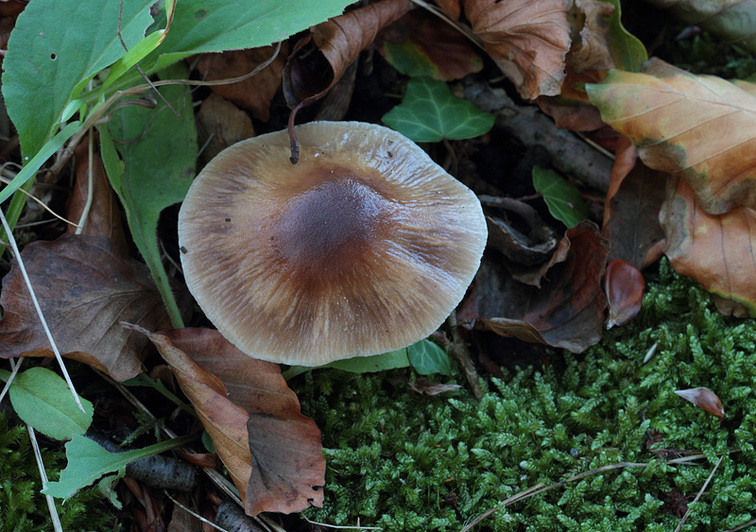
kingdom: Fungi
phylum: Basidiomycota
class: Agaricomycetes
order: Agaricales
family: Cortinariaceae
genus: Cortinarius
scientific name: Cortinarius elatior
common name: høj slørhat
